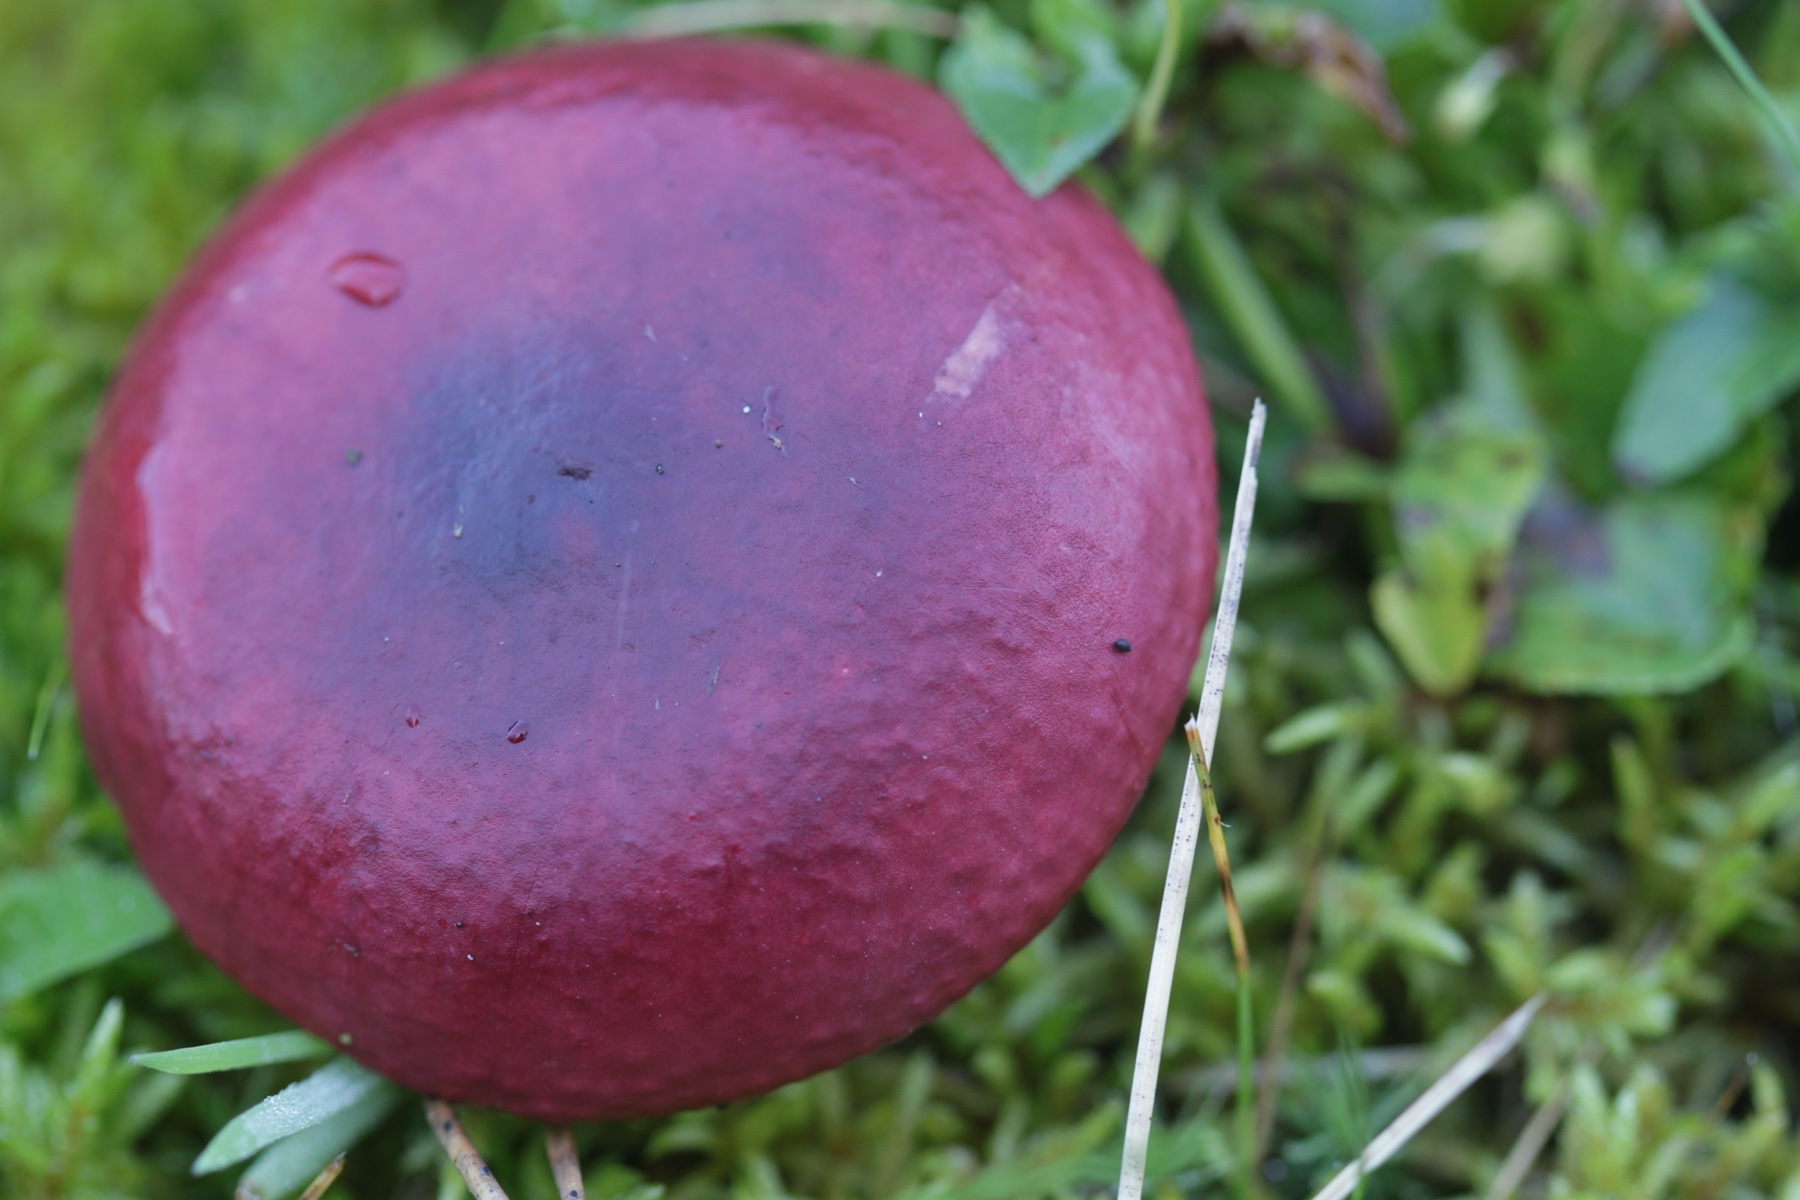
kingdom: Fungi
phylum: Basidiomycota
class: Agaricomycetes
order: Russulales
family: Russulaceae
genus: Russula
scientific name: Russula
